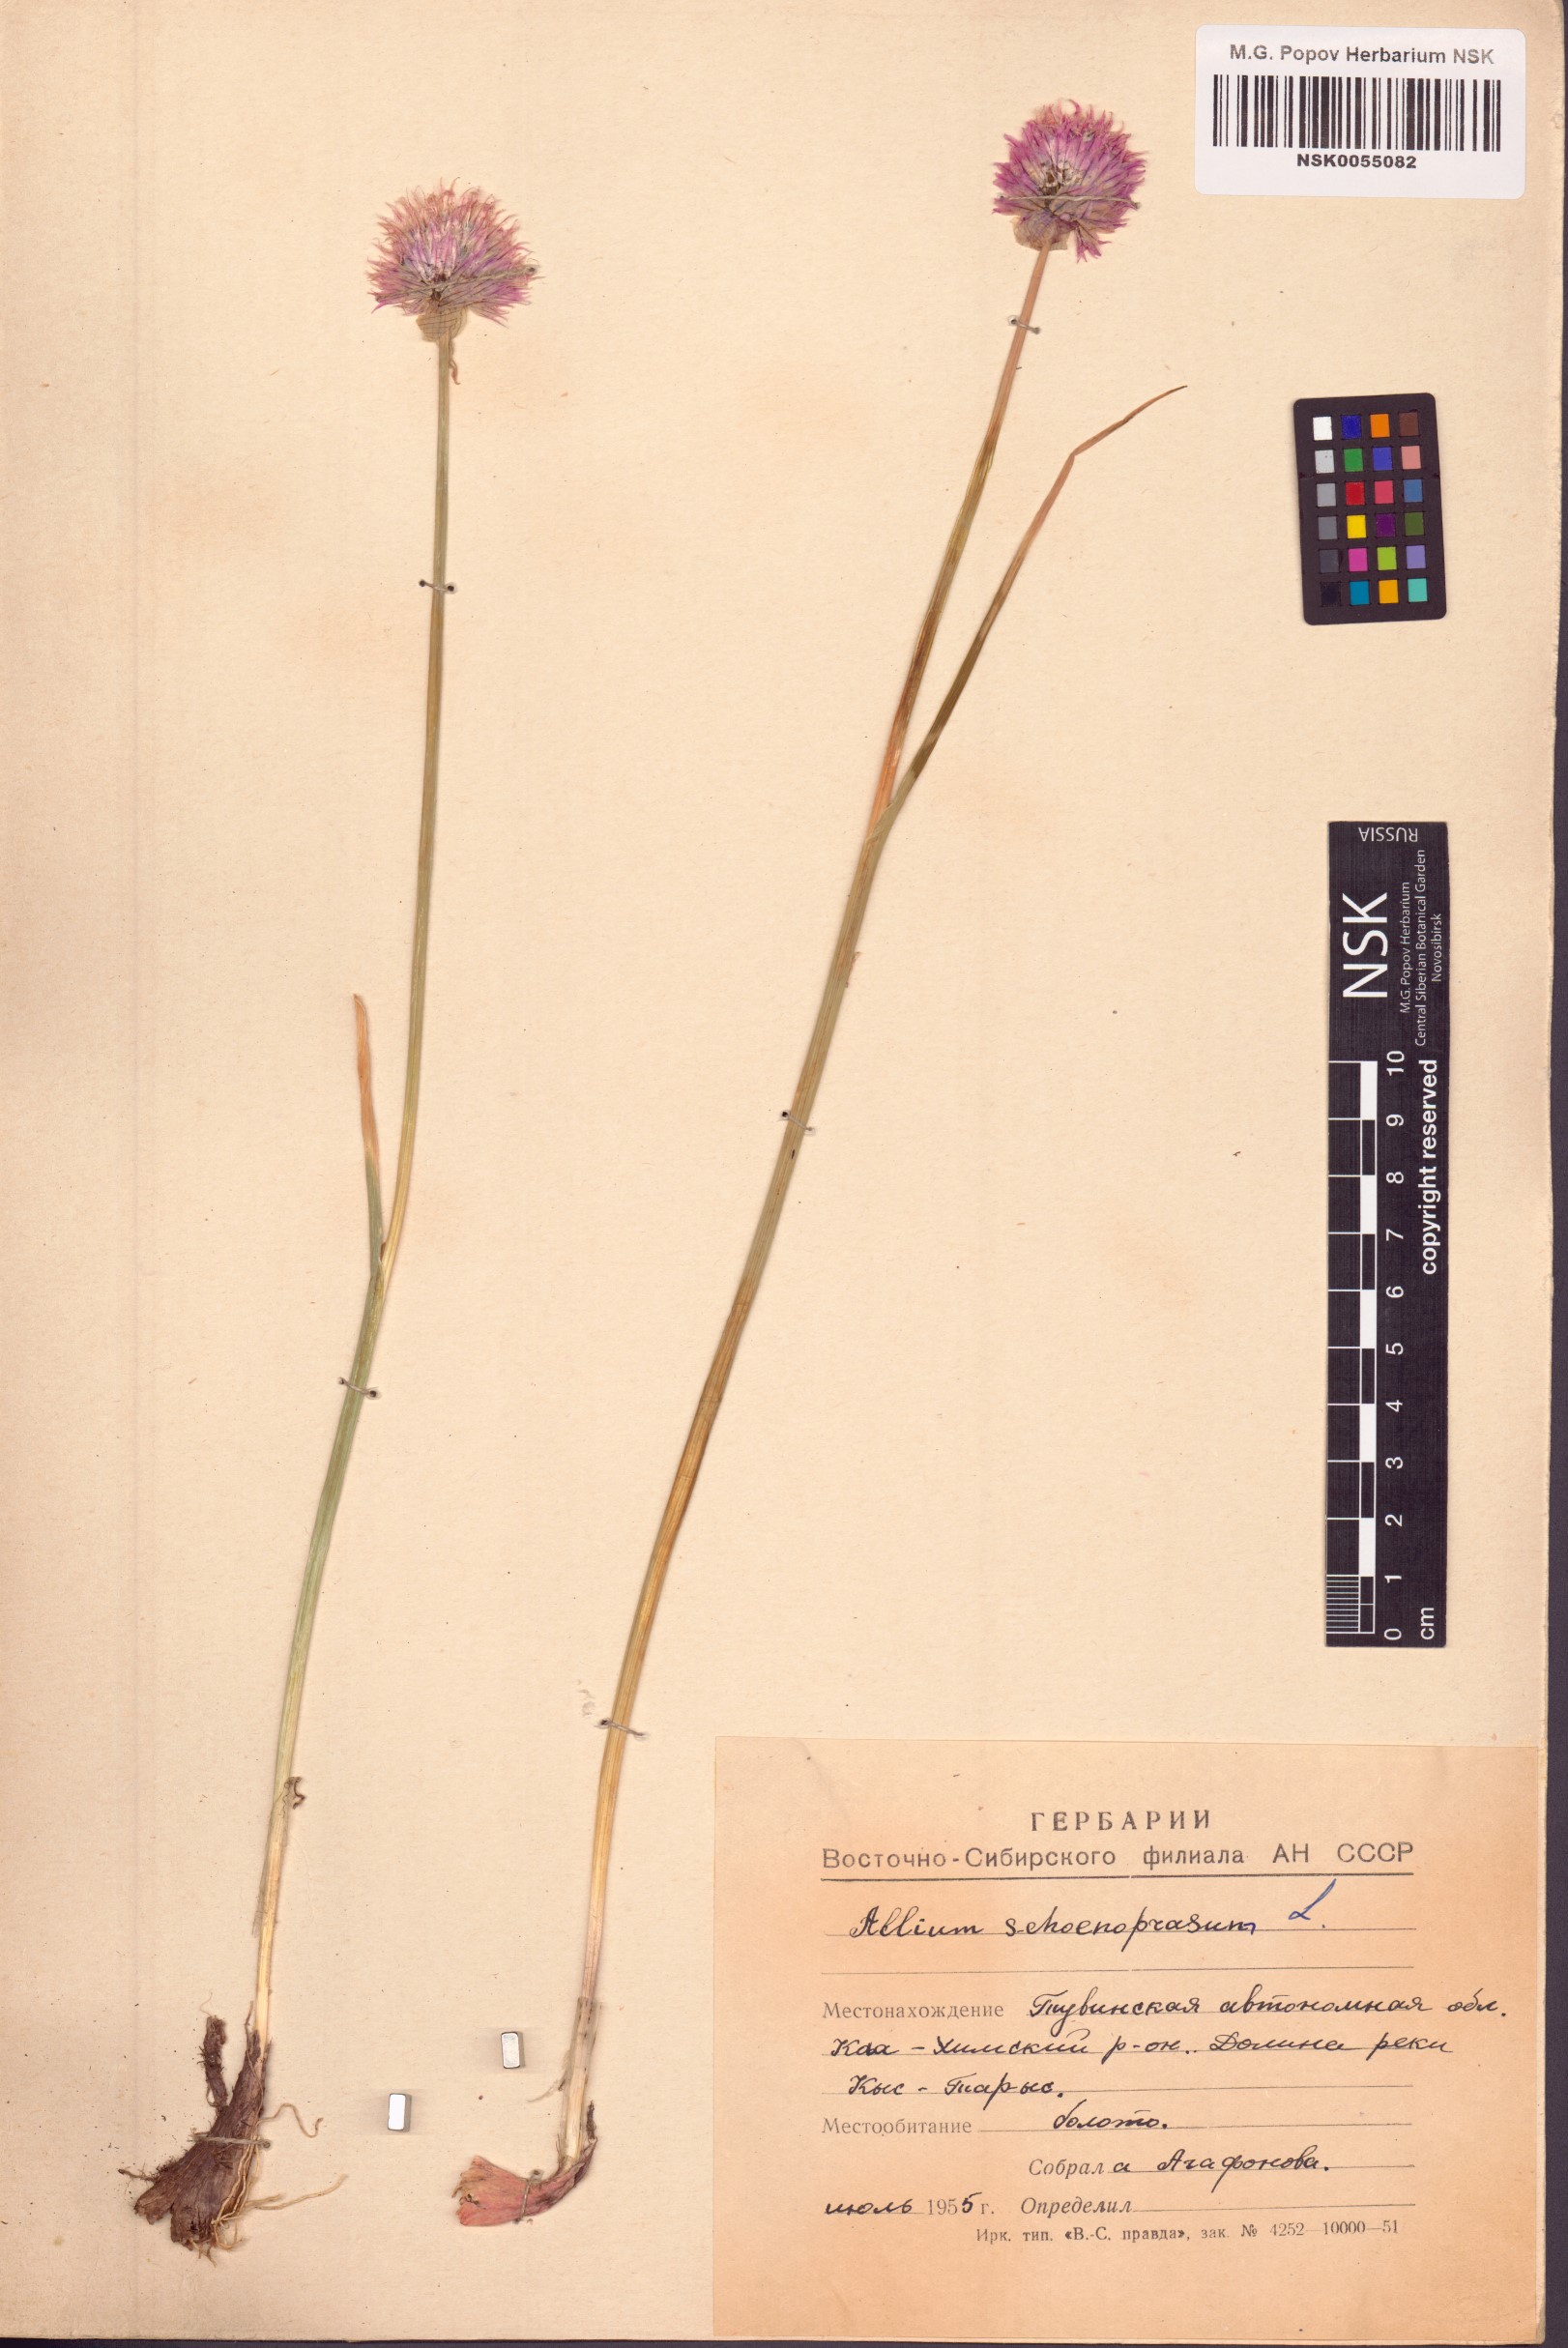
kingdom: Plantae
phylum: Tracheophyta
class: Liliopsida
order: Asparagales
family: Amaryllidaceae
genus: Allium
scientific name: Allium schoenoprasum
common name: Chives
